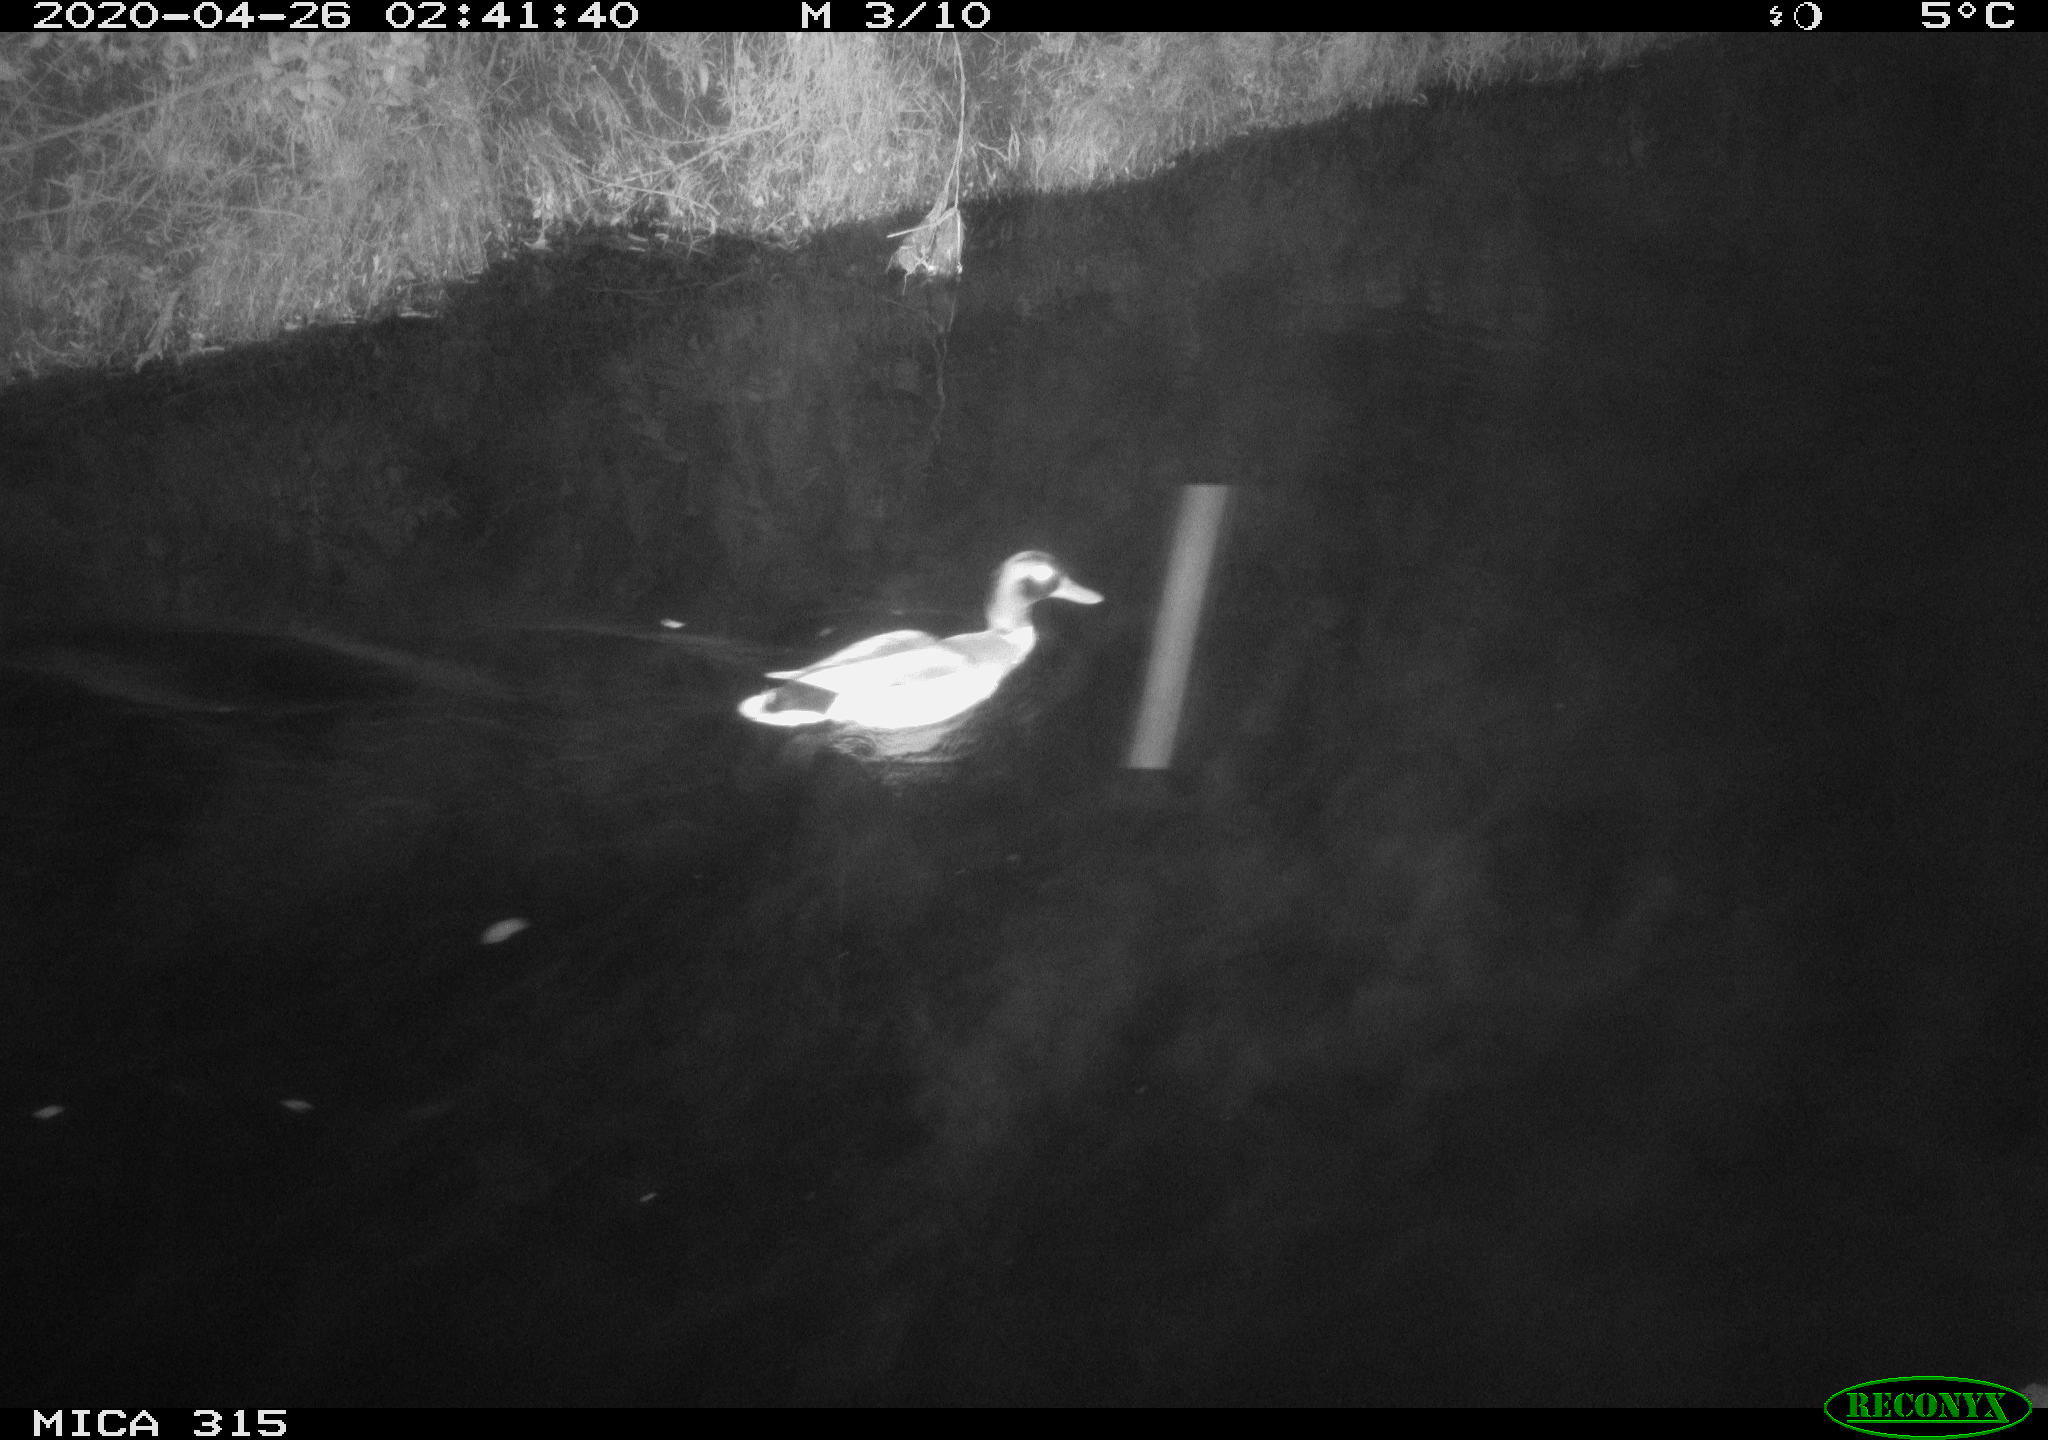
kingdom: Animalia
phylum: Chordata
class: Aves
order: Anseriformes
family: Anatidae
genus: Anas
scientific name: Anas platyrhynchos
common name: Mallard
